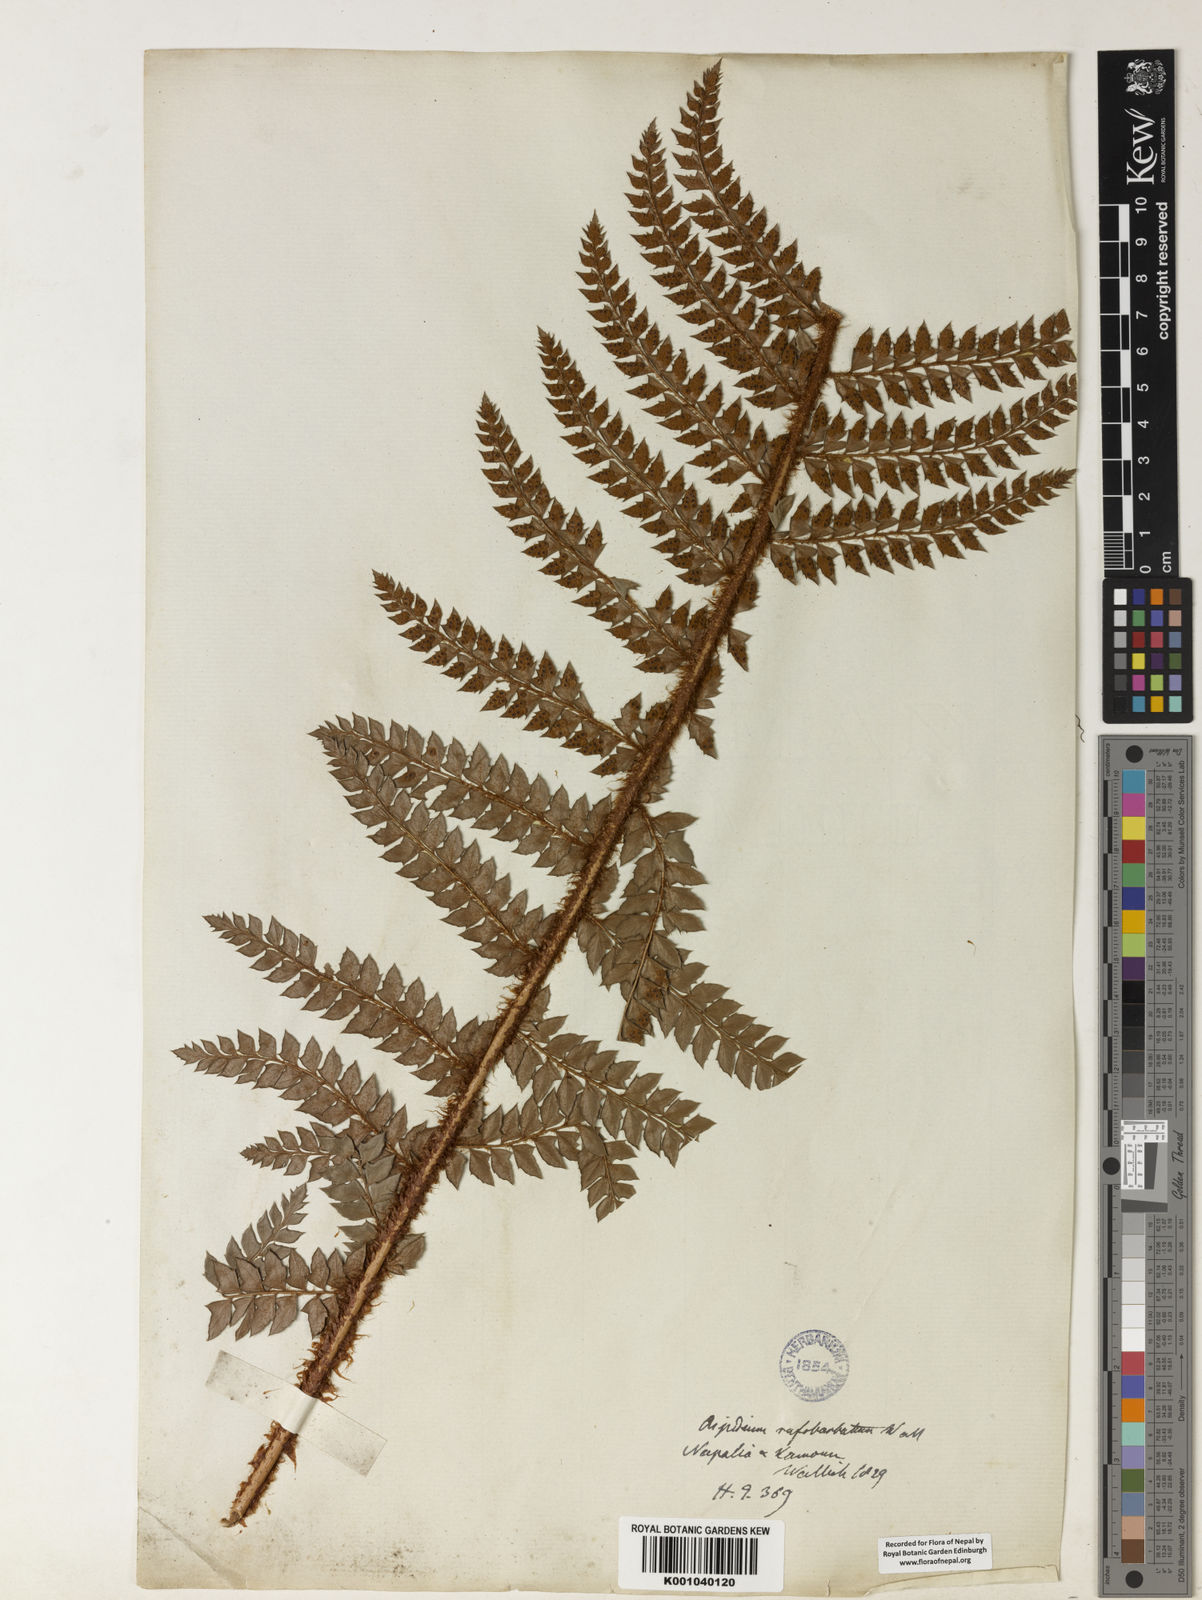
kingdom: Plantae
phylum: Tracheophyta
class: Polypodiopsida
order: Polypodiales
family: Dryopteridaceae
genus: Polystichum
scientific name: Polystichum
